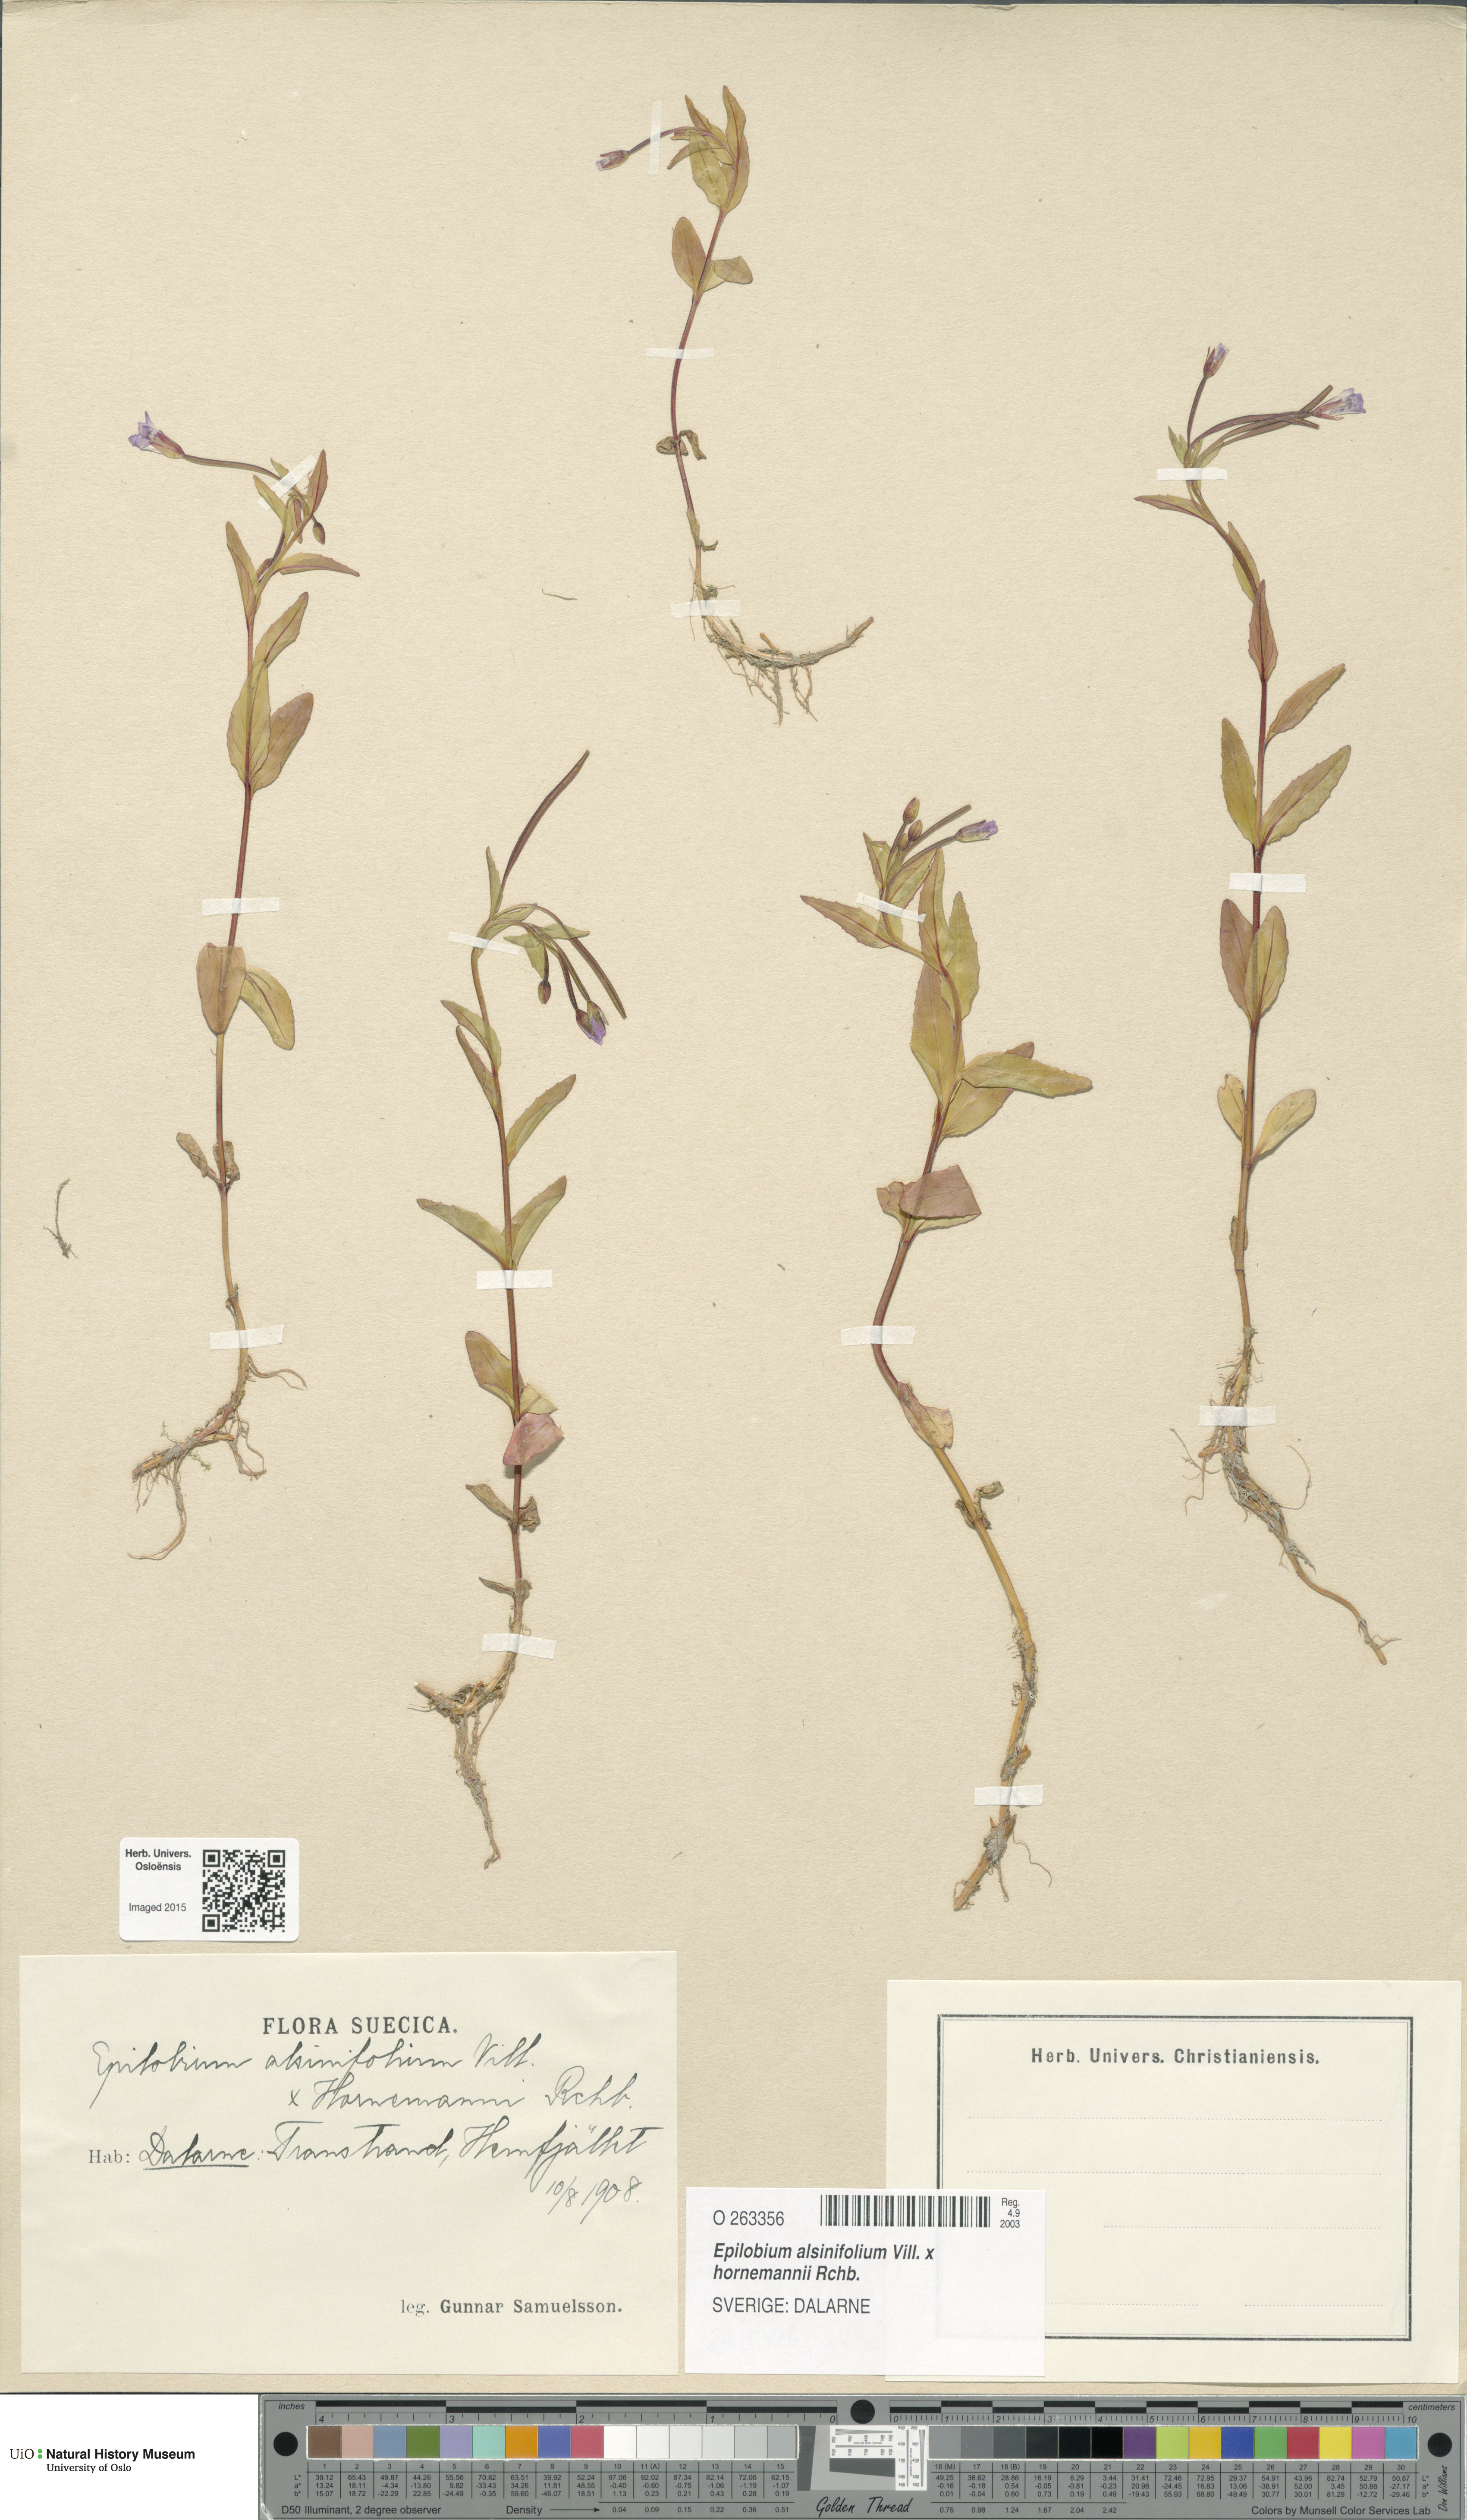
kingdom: Plantae
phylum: Tracheophyta
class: Magnoliopsida
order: Myrtales
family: Onagraceae
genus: Epilobium
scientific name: Epilobium
